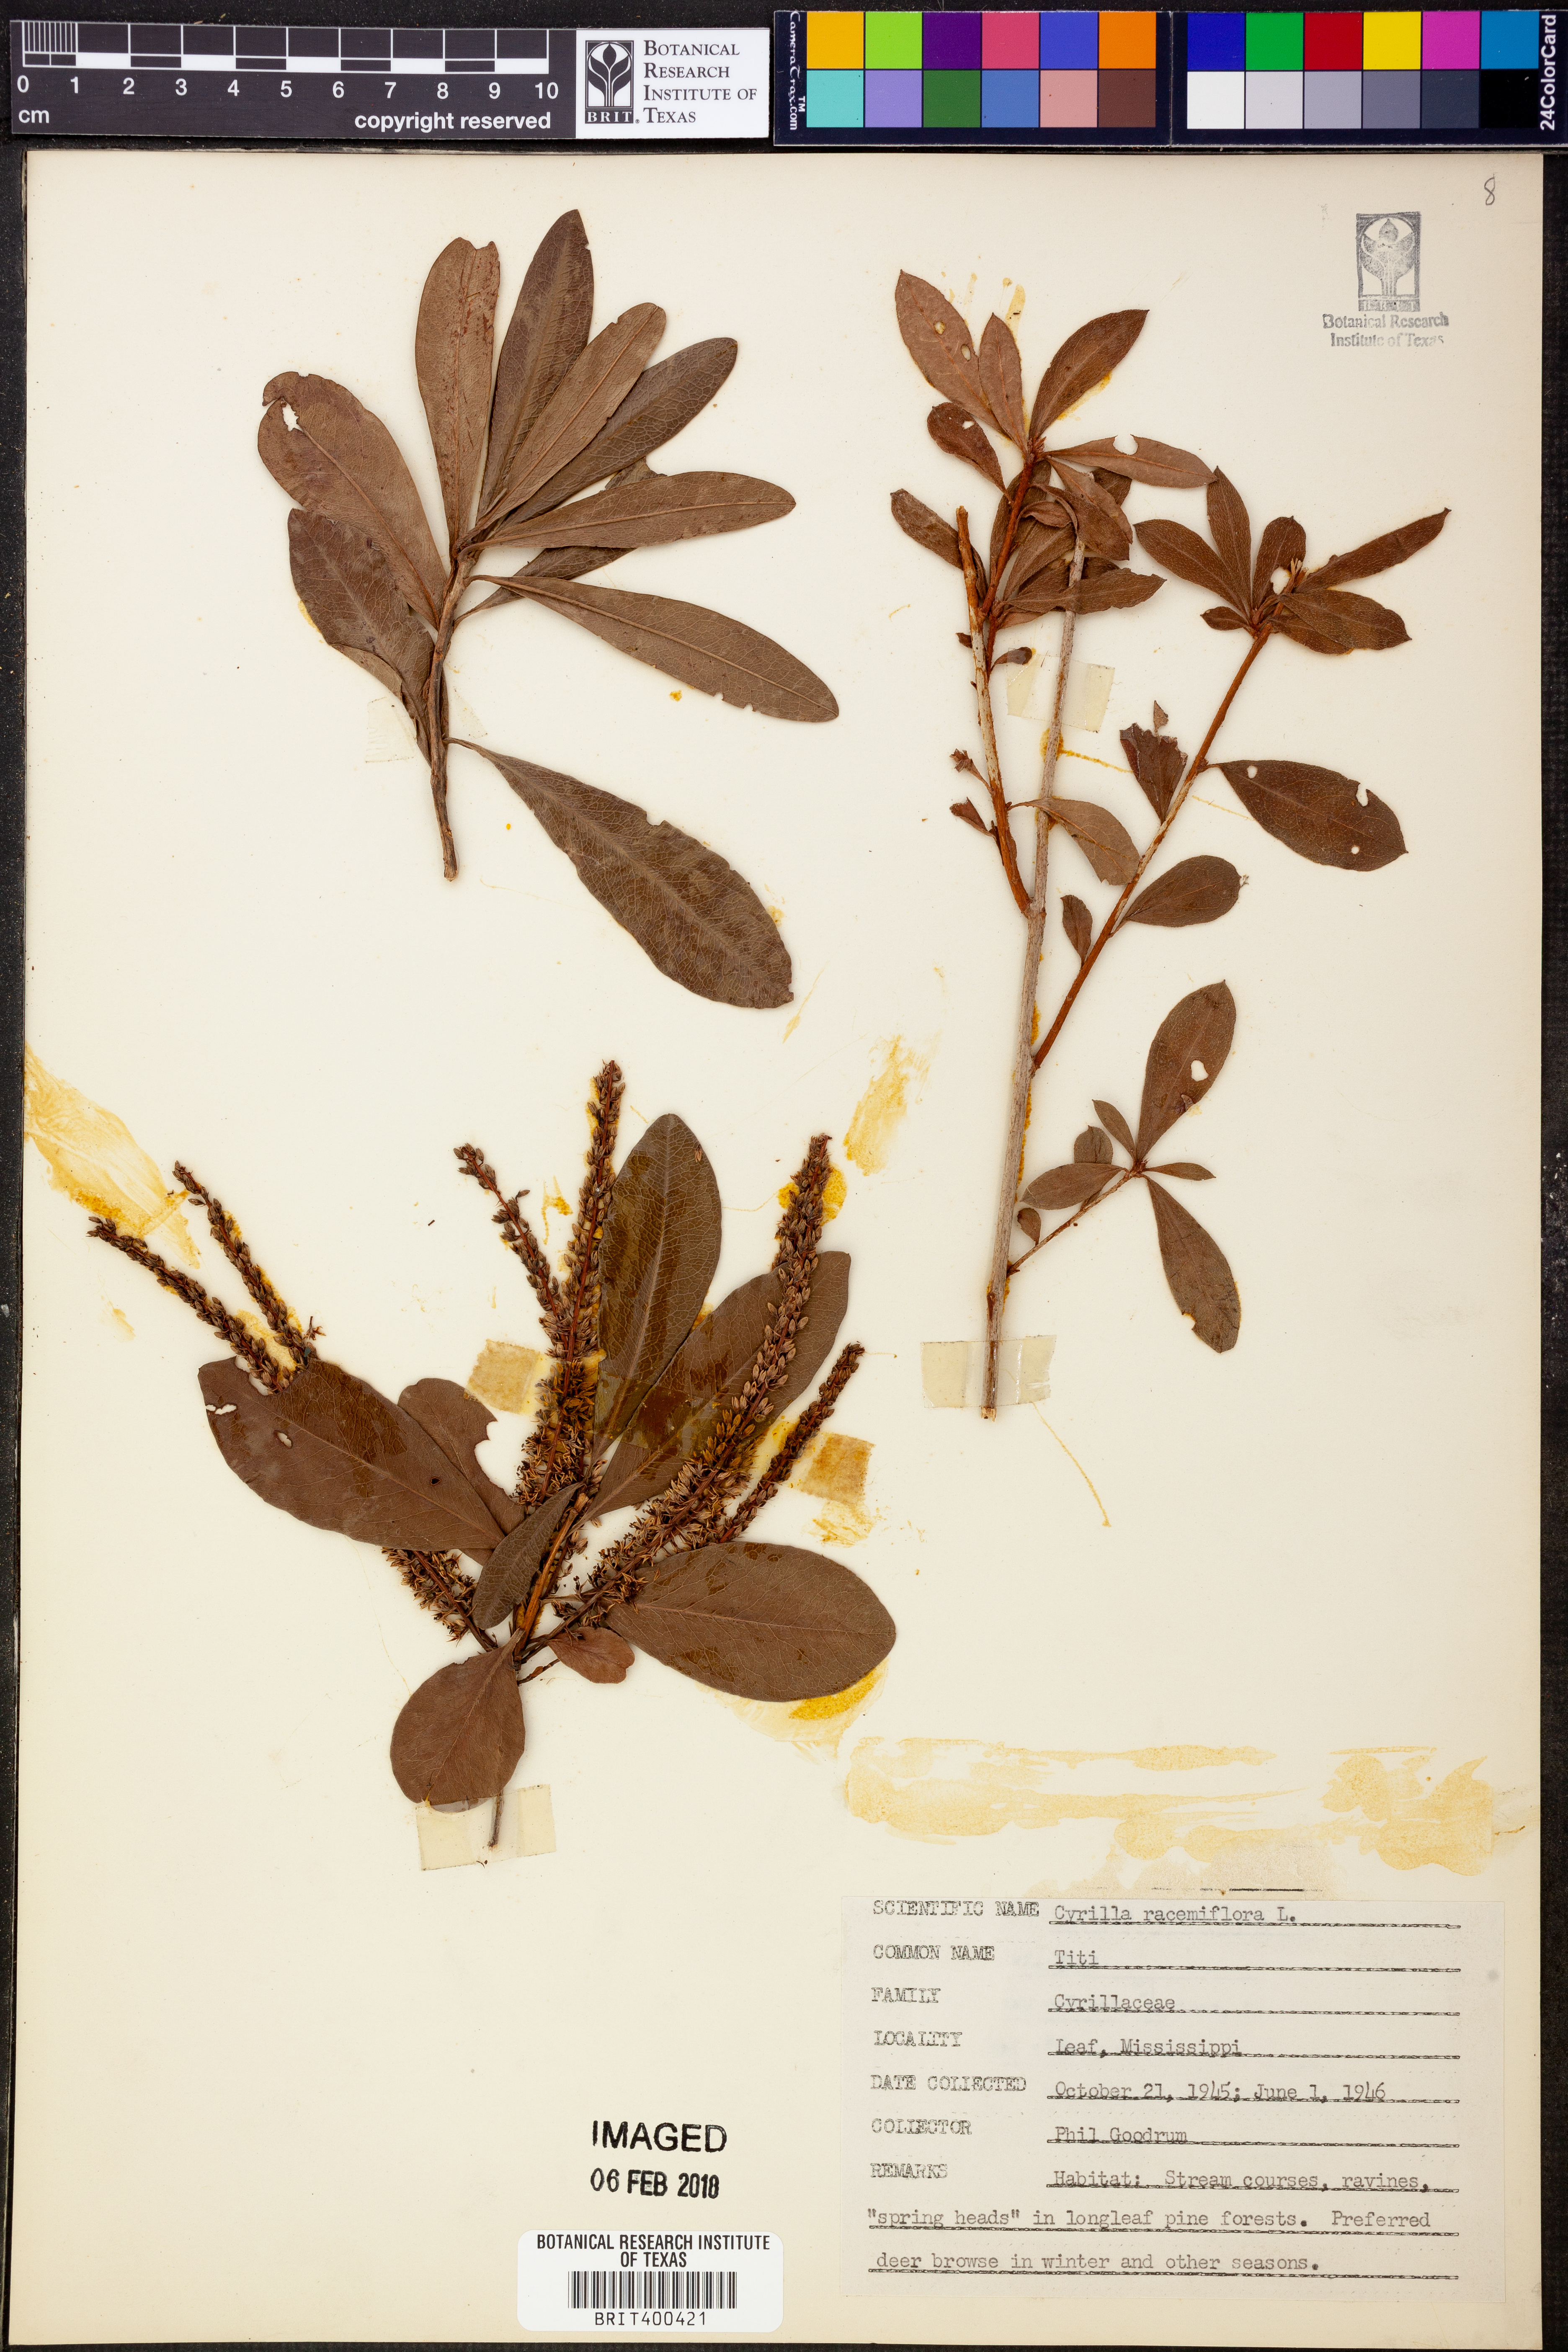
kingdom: Plantae
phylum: Tracheophyta
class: Magnoliopsida
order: Ericales
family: Cyrillaceae
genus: Cyrilla
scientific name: Cyrilla racemiflora
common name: Black titi
